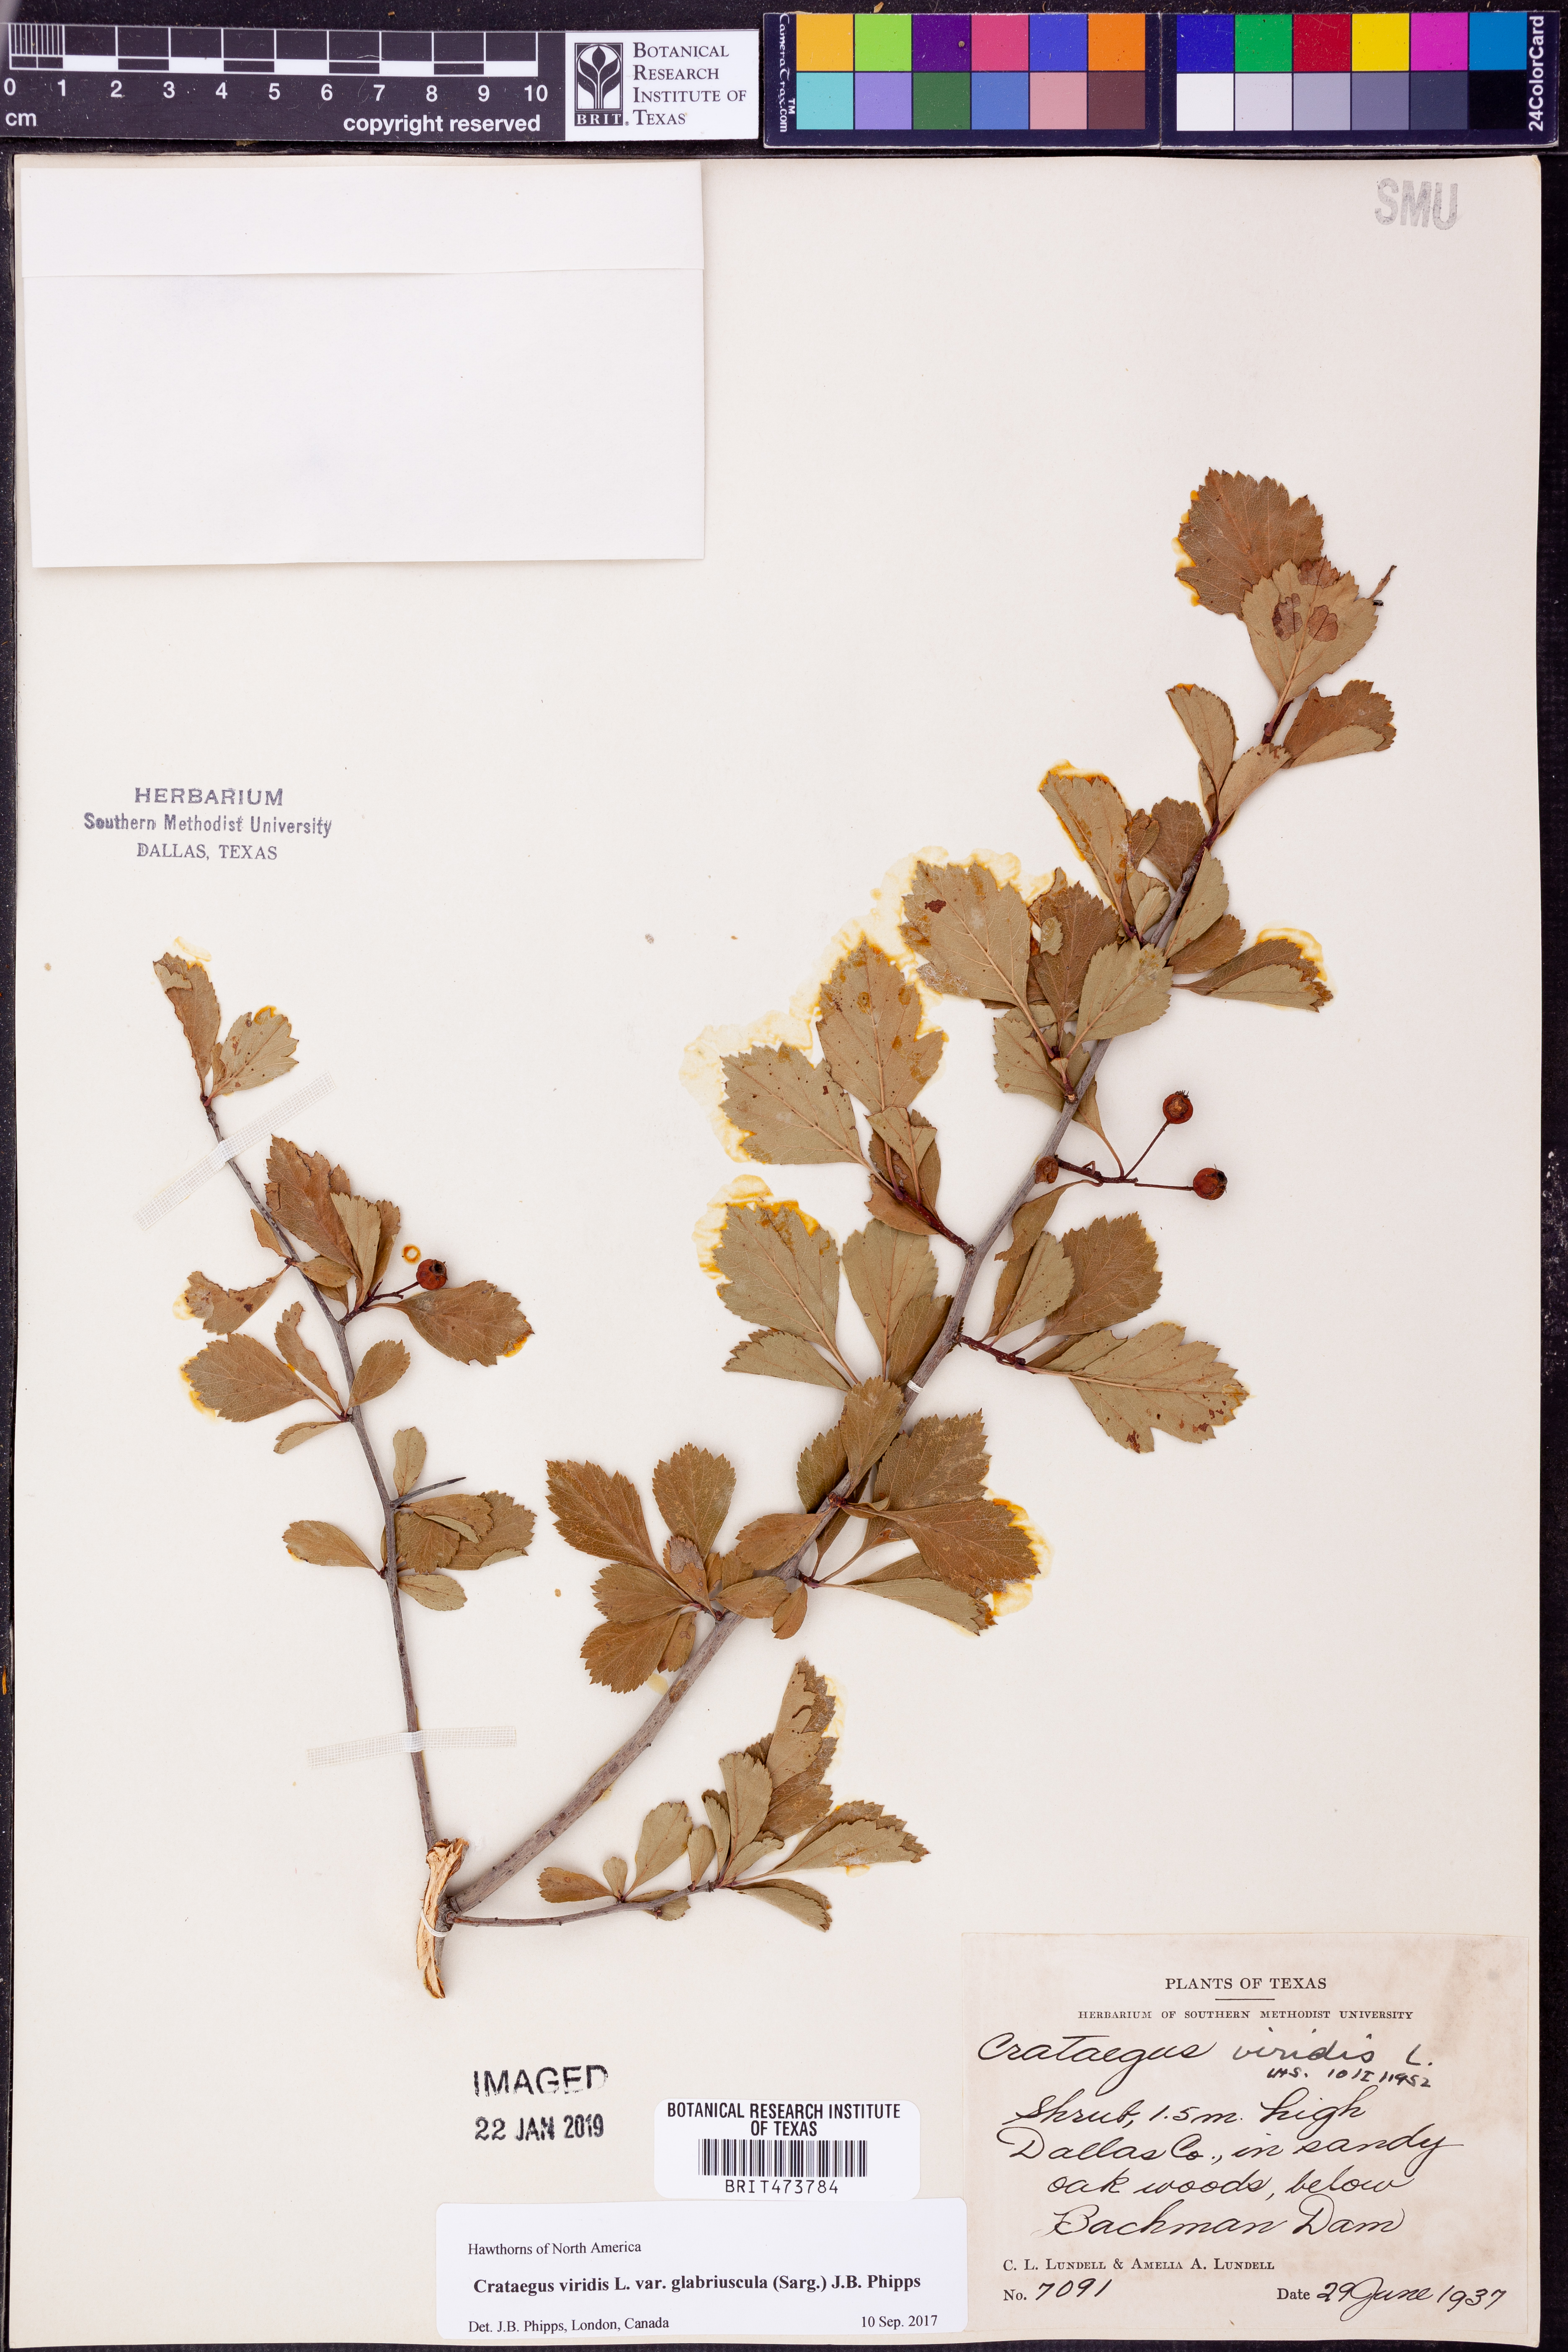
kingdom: Plantae
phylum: Tracheophyta
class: Magnoliopsida
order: Rosales
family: Rosaceae
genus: Crataegus
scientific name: Crataegus viridis
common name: Southernthorn
